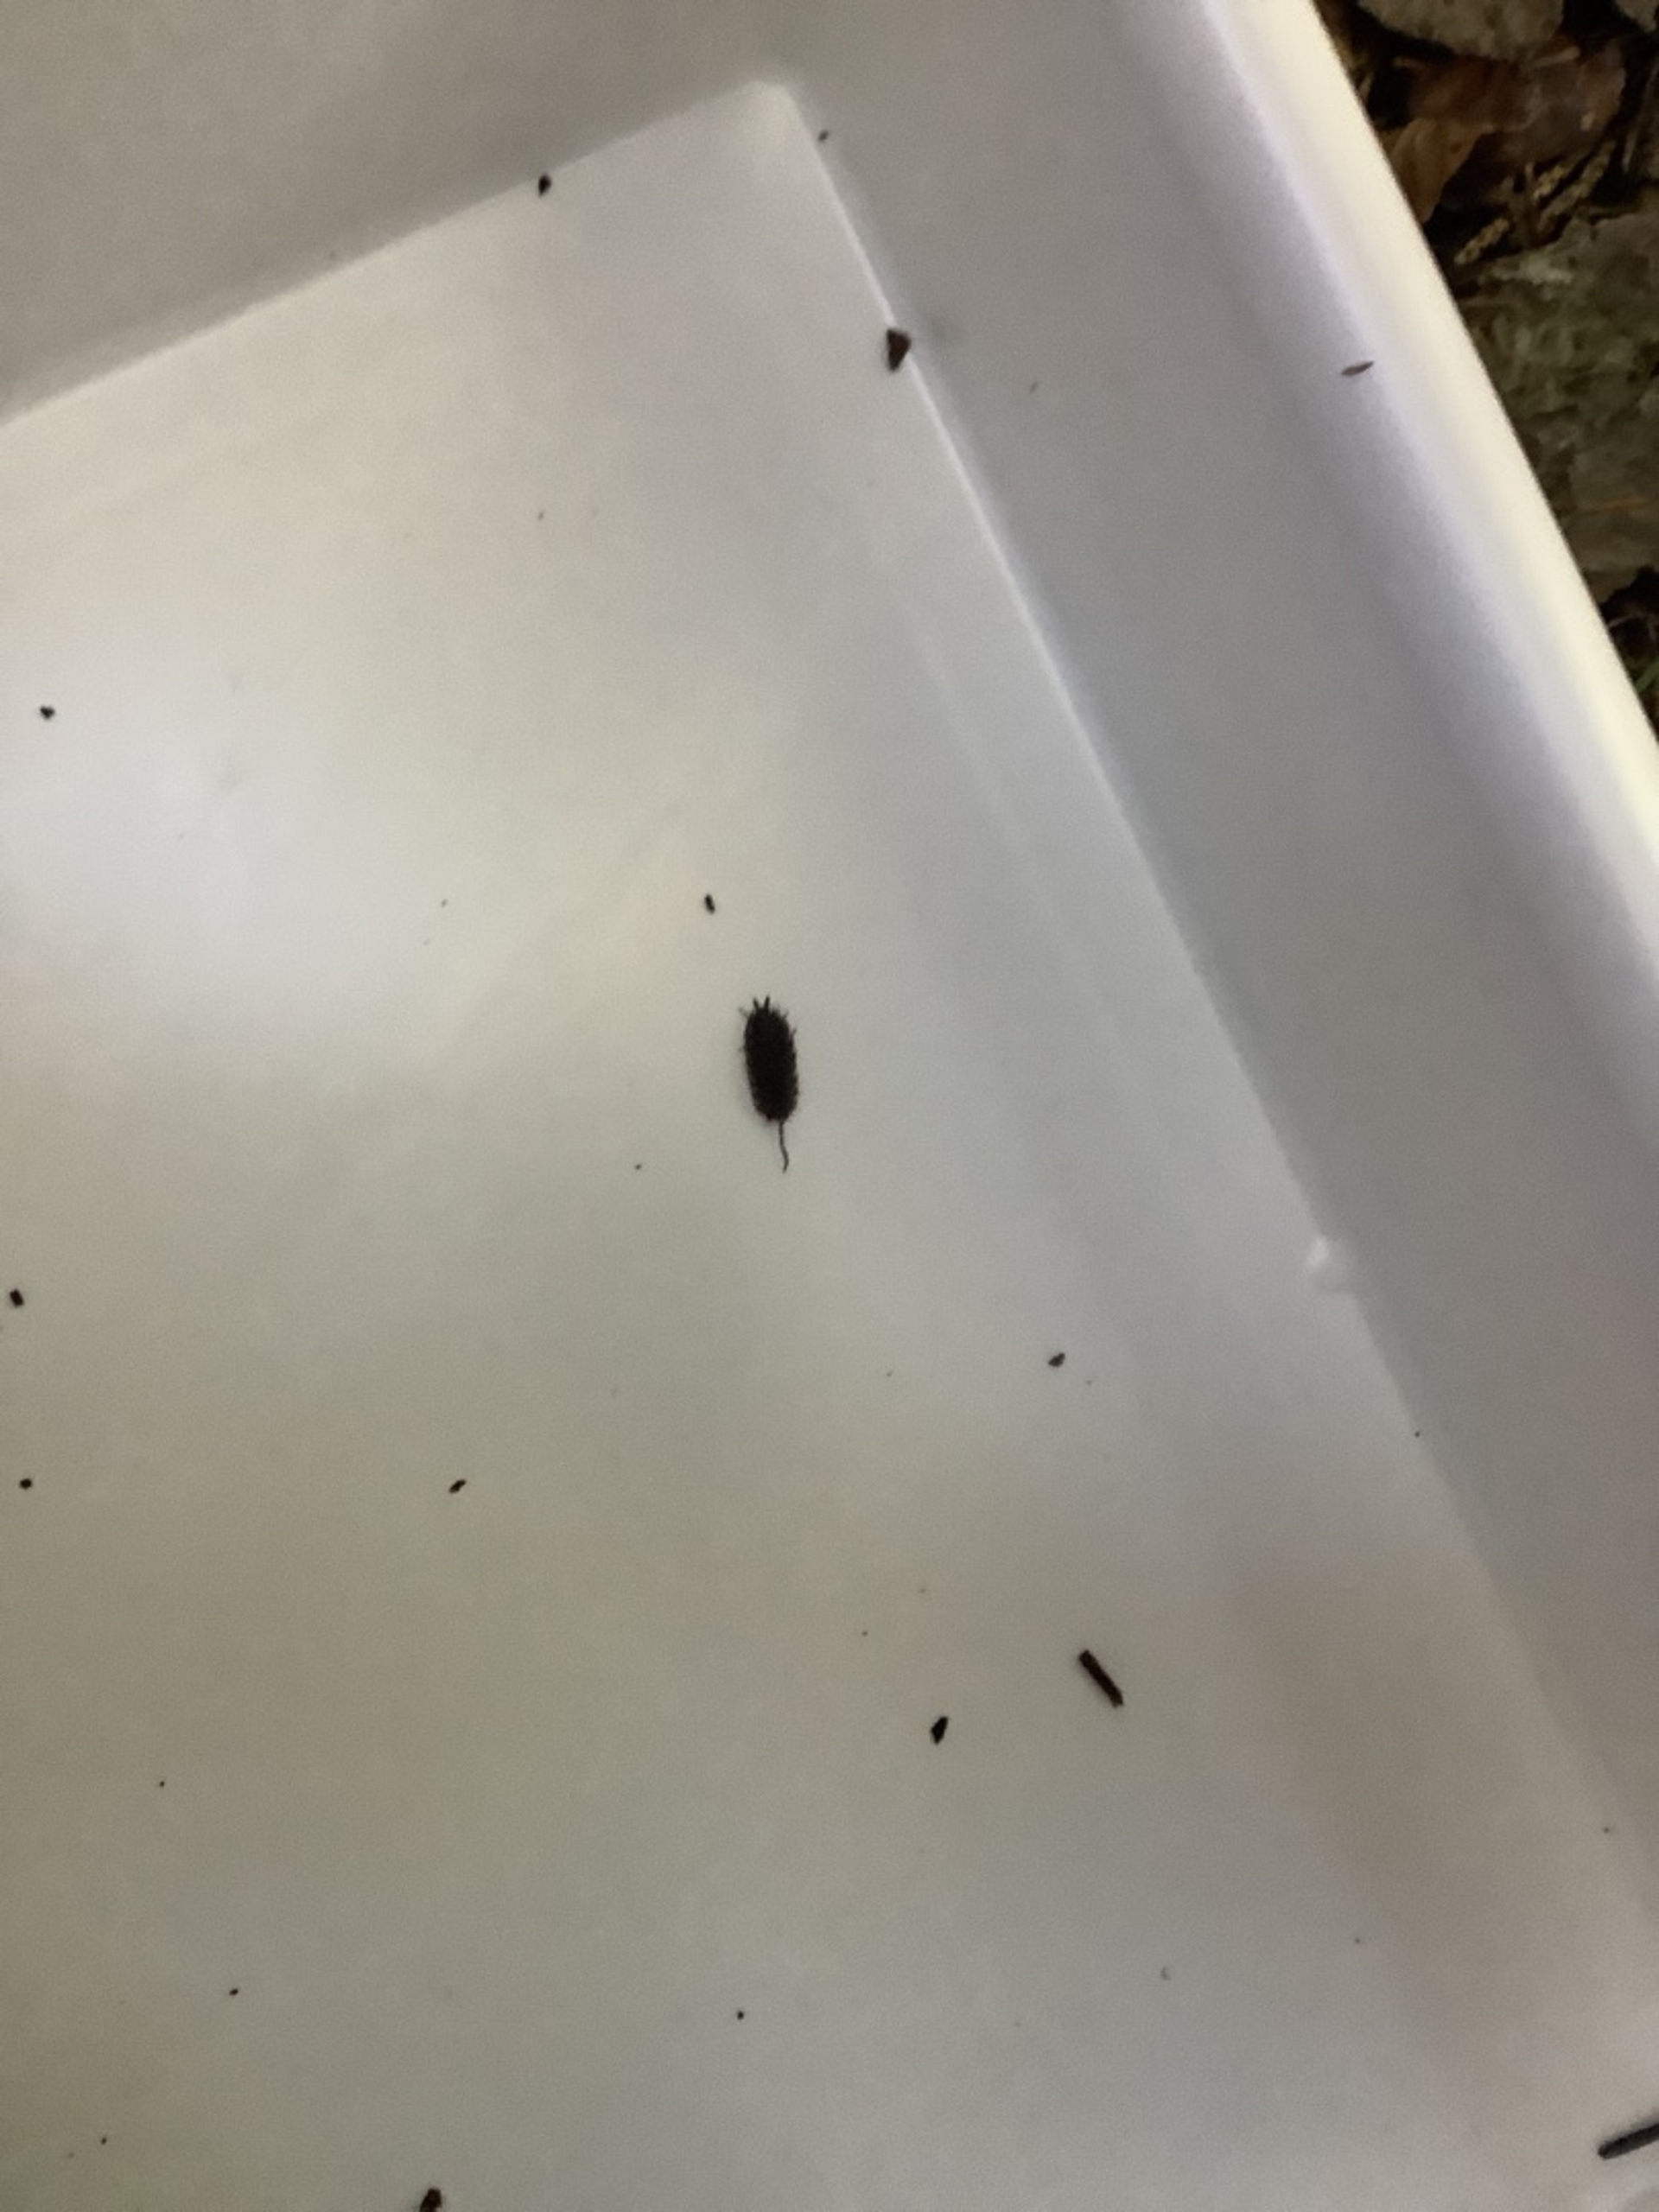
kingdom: Animalia
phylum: Arthropoda
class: Malacostraca
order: Isopoda
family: Oniscidae
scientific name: Oniscidae
